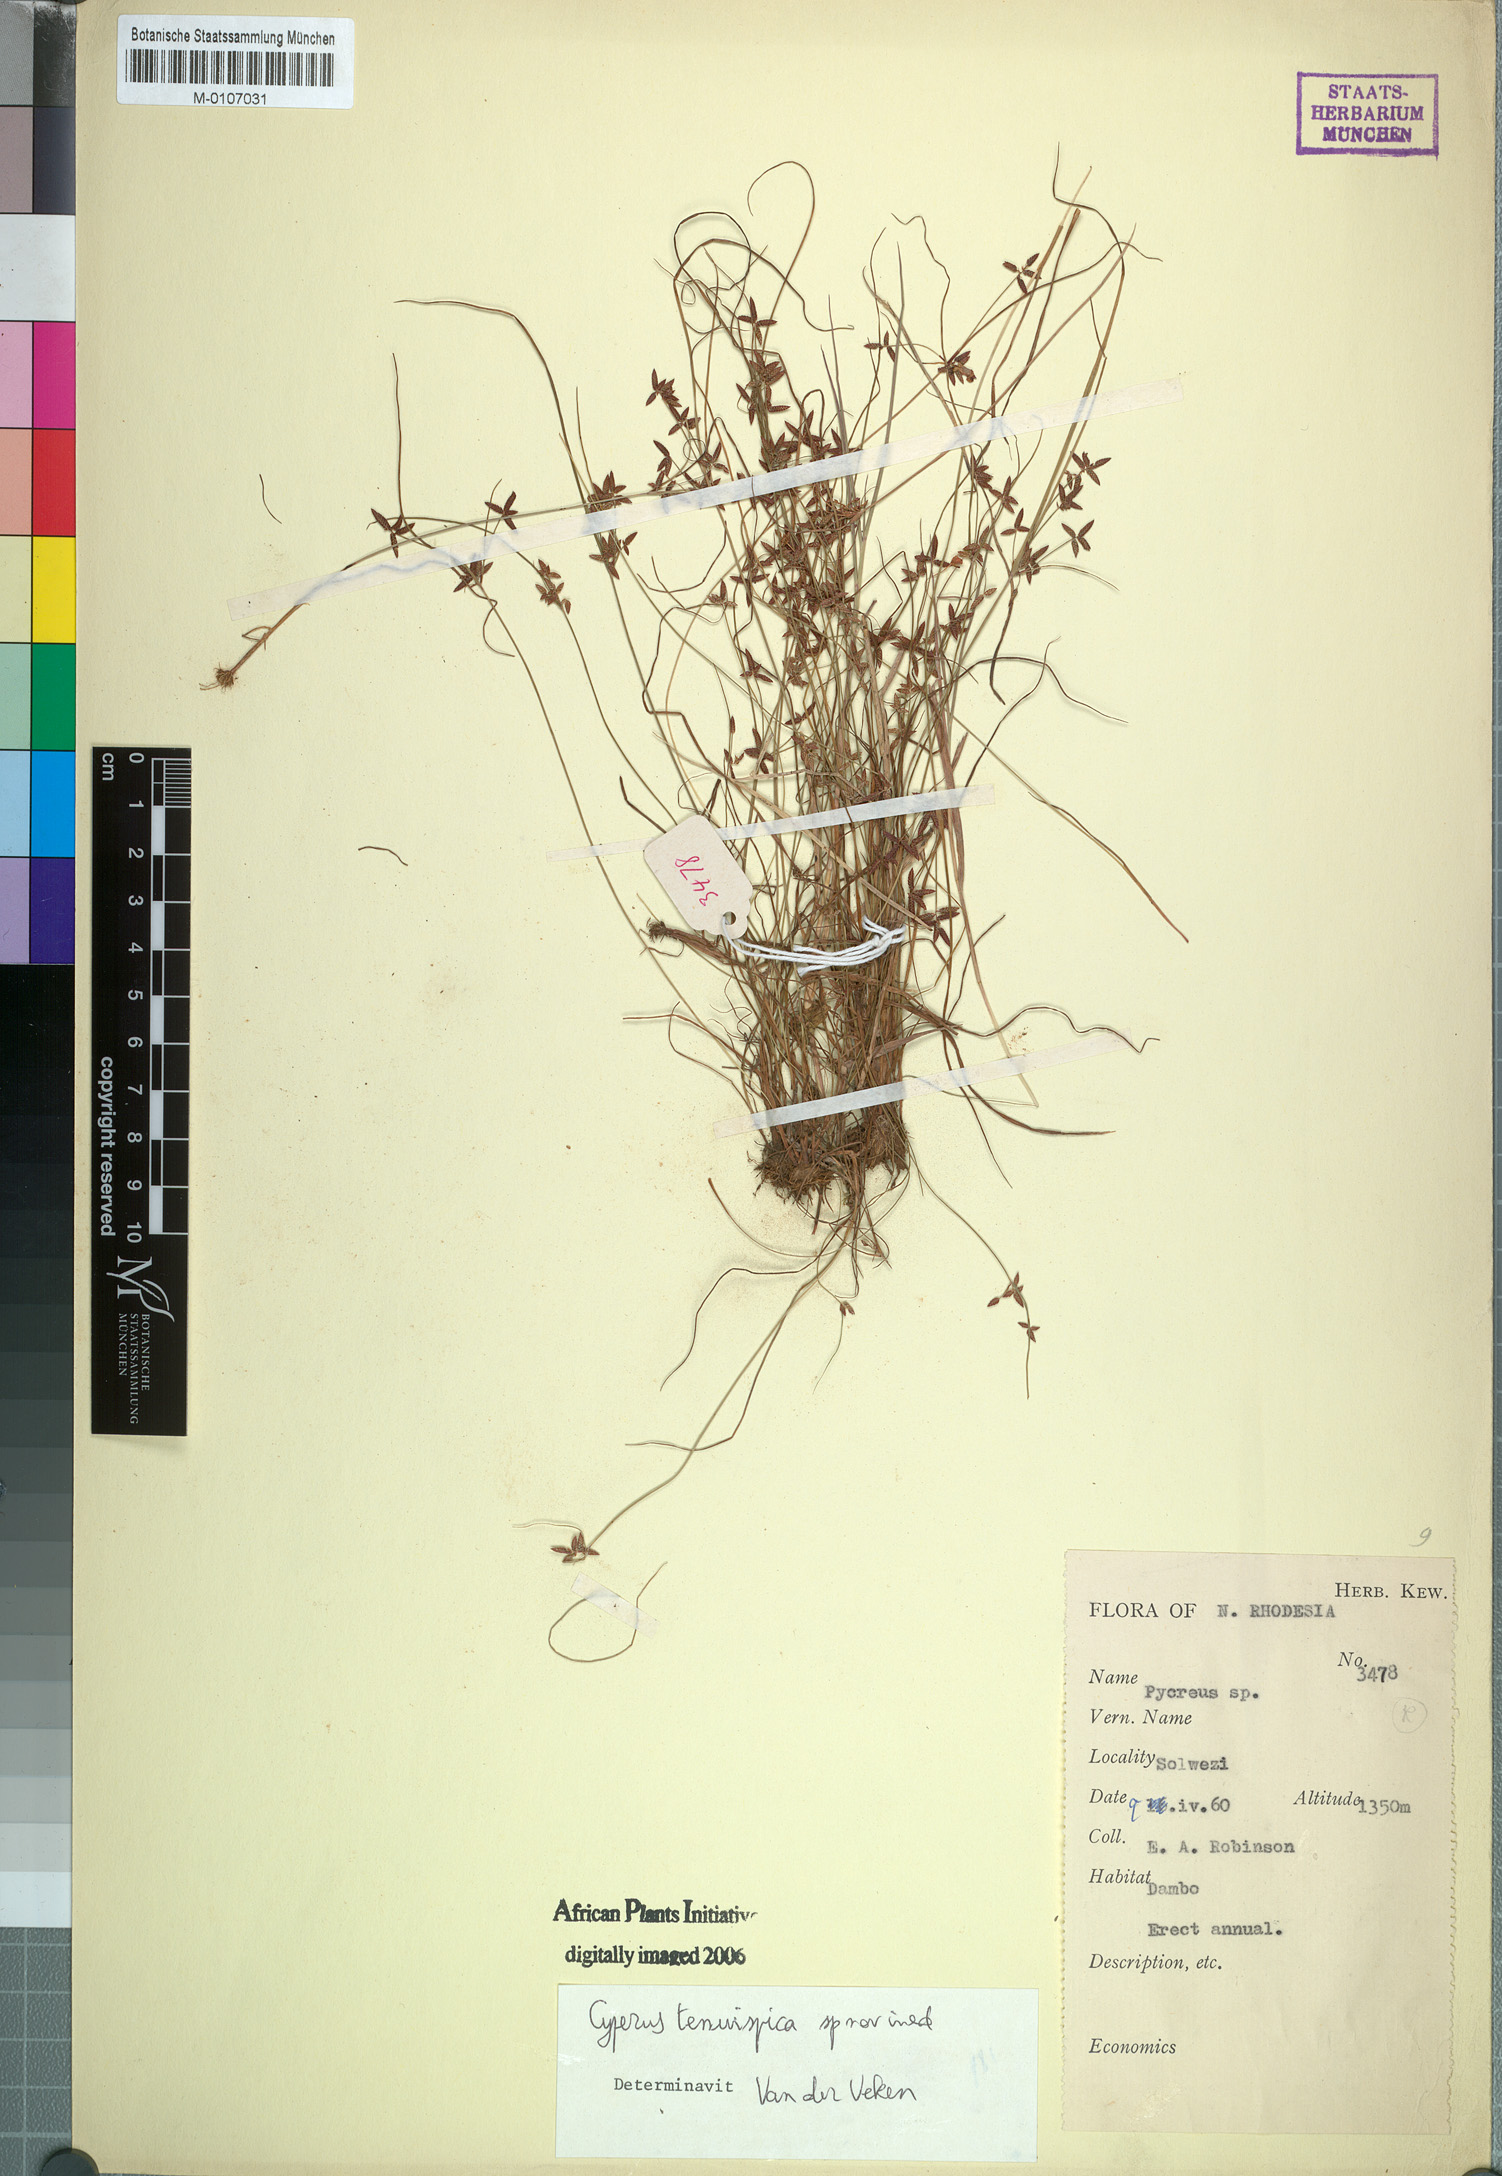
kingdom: Plantae
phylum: Tracheophyta
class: Liliopsida
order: Poales
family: Cyperaceae
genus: Cyperus
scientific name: Cyperus tenuispica
